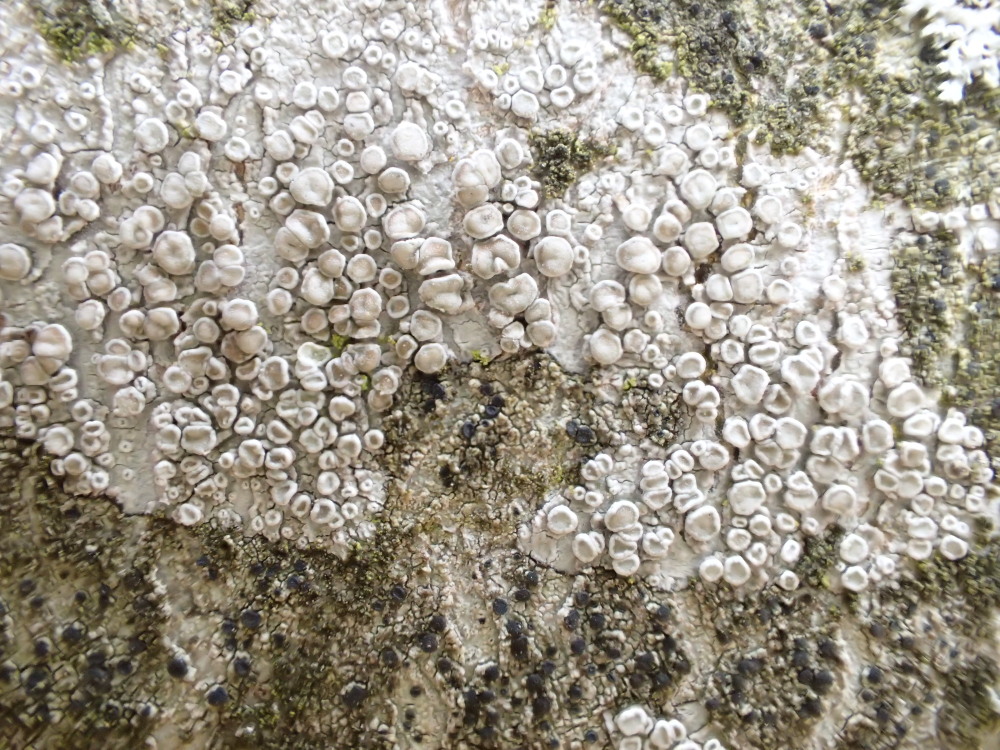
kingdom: Fungi
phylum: Ascomycota
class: Lecanoromycetes
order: Lecanorales
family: Lecanoraceae
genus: Glaucomaria
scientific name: Glaucomaria carpinea
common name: hviddugget kantskivelav
